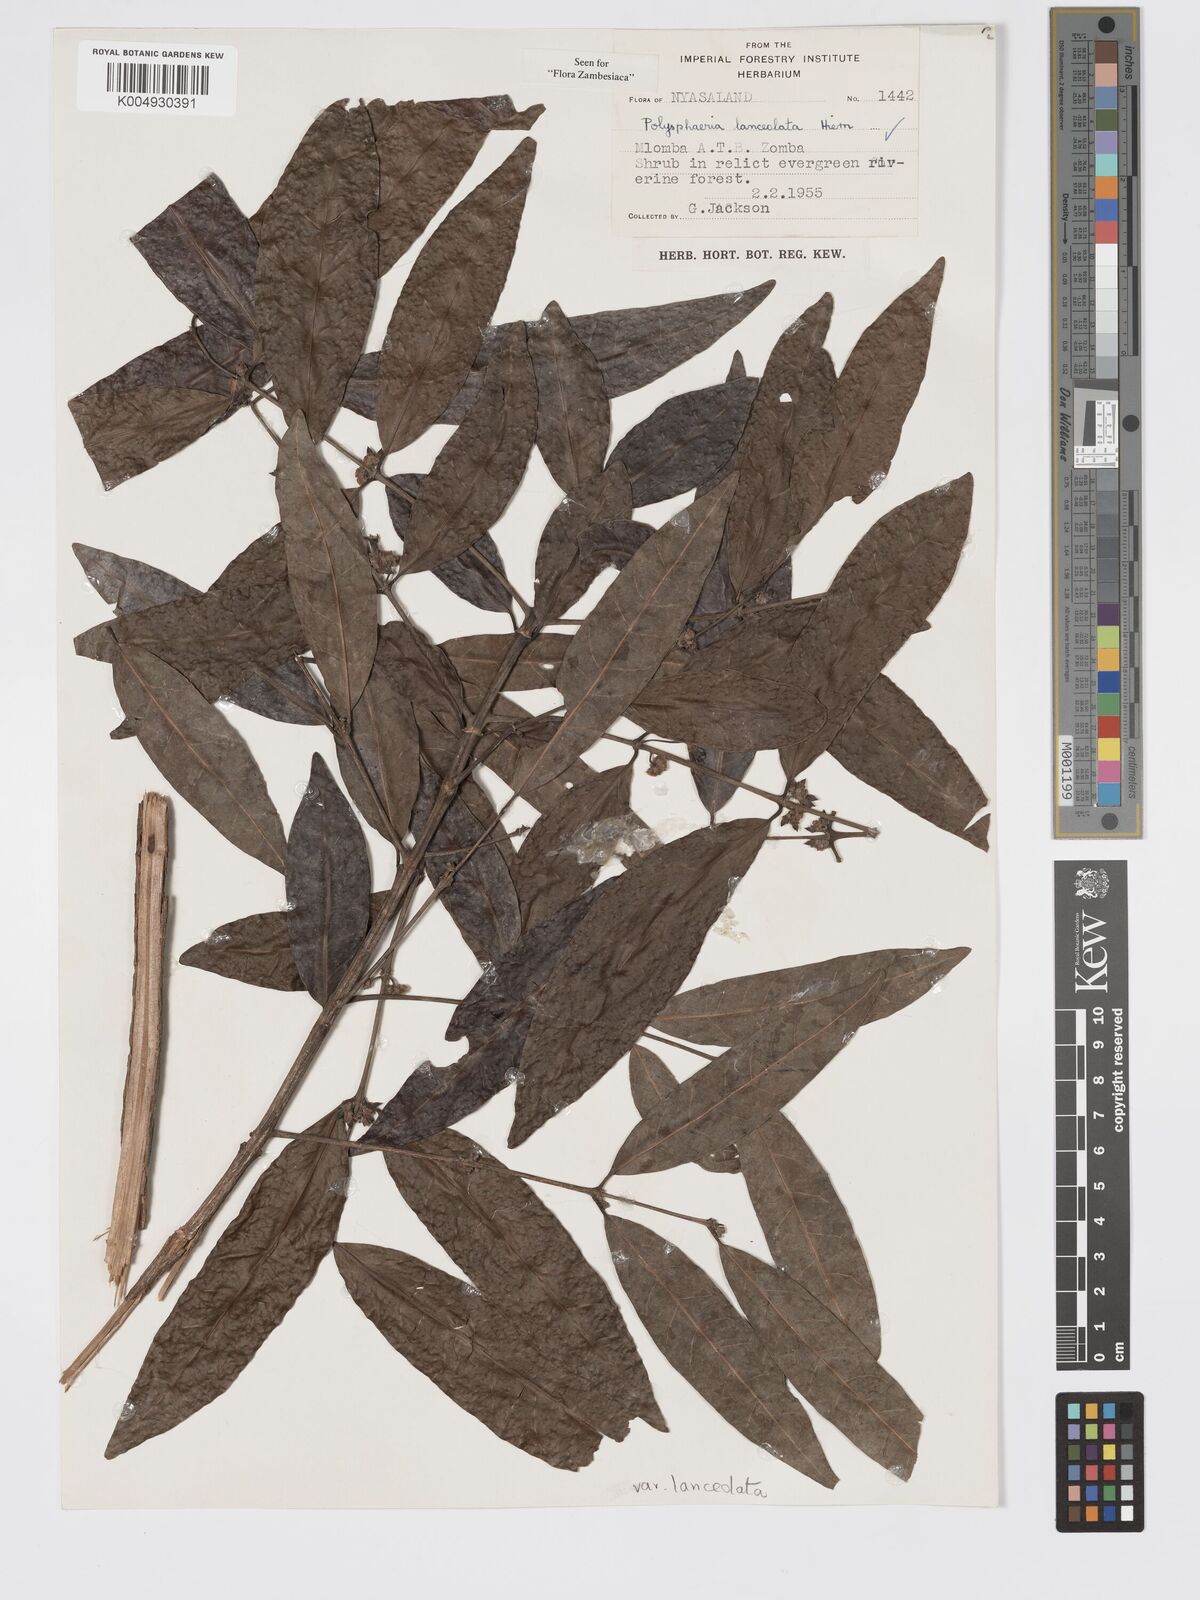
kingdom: Plantae
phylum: Tracheophyta
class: Magnoliopsida
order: Gentianales
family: Rubiaceae
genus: Polysphaeria
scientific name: Polysphaeria lanceolata
